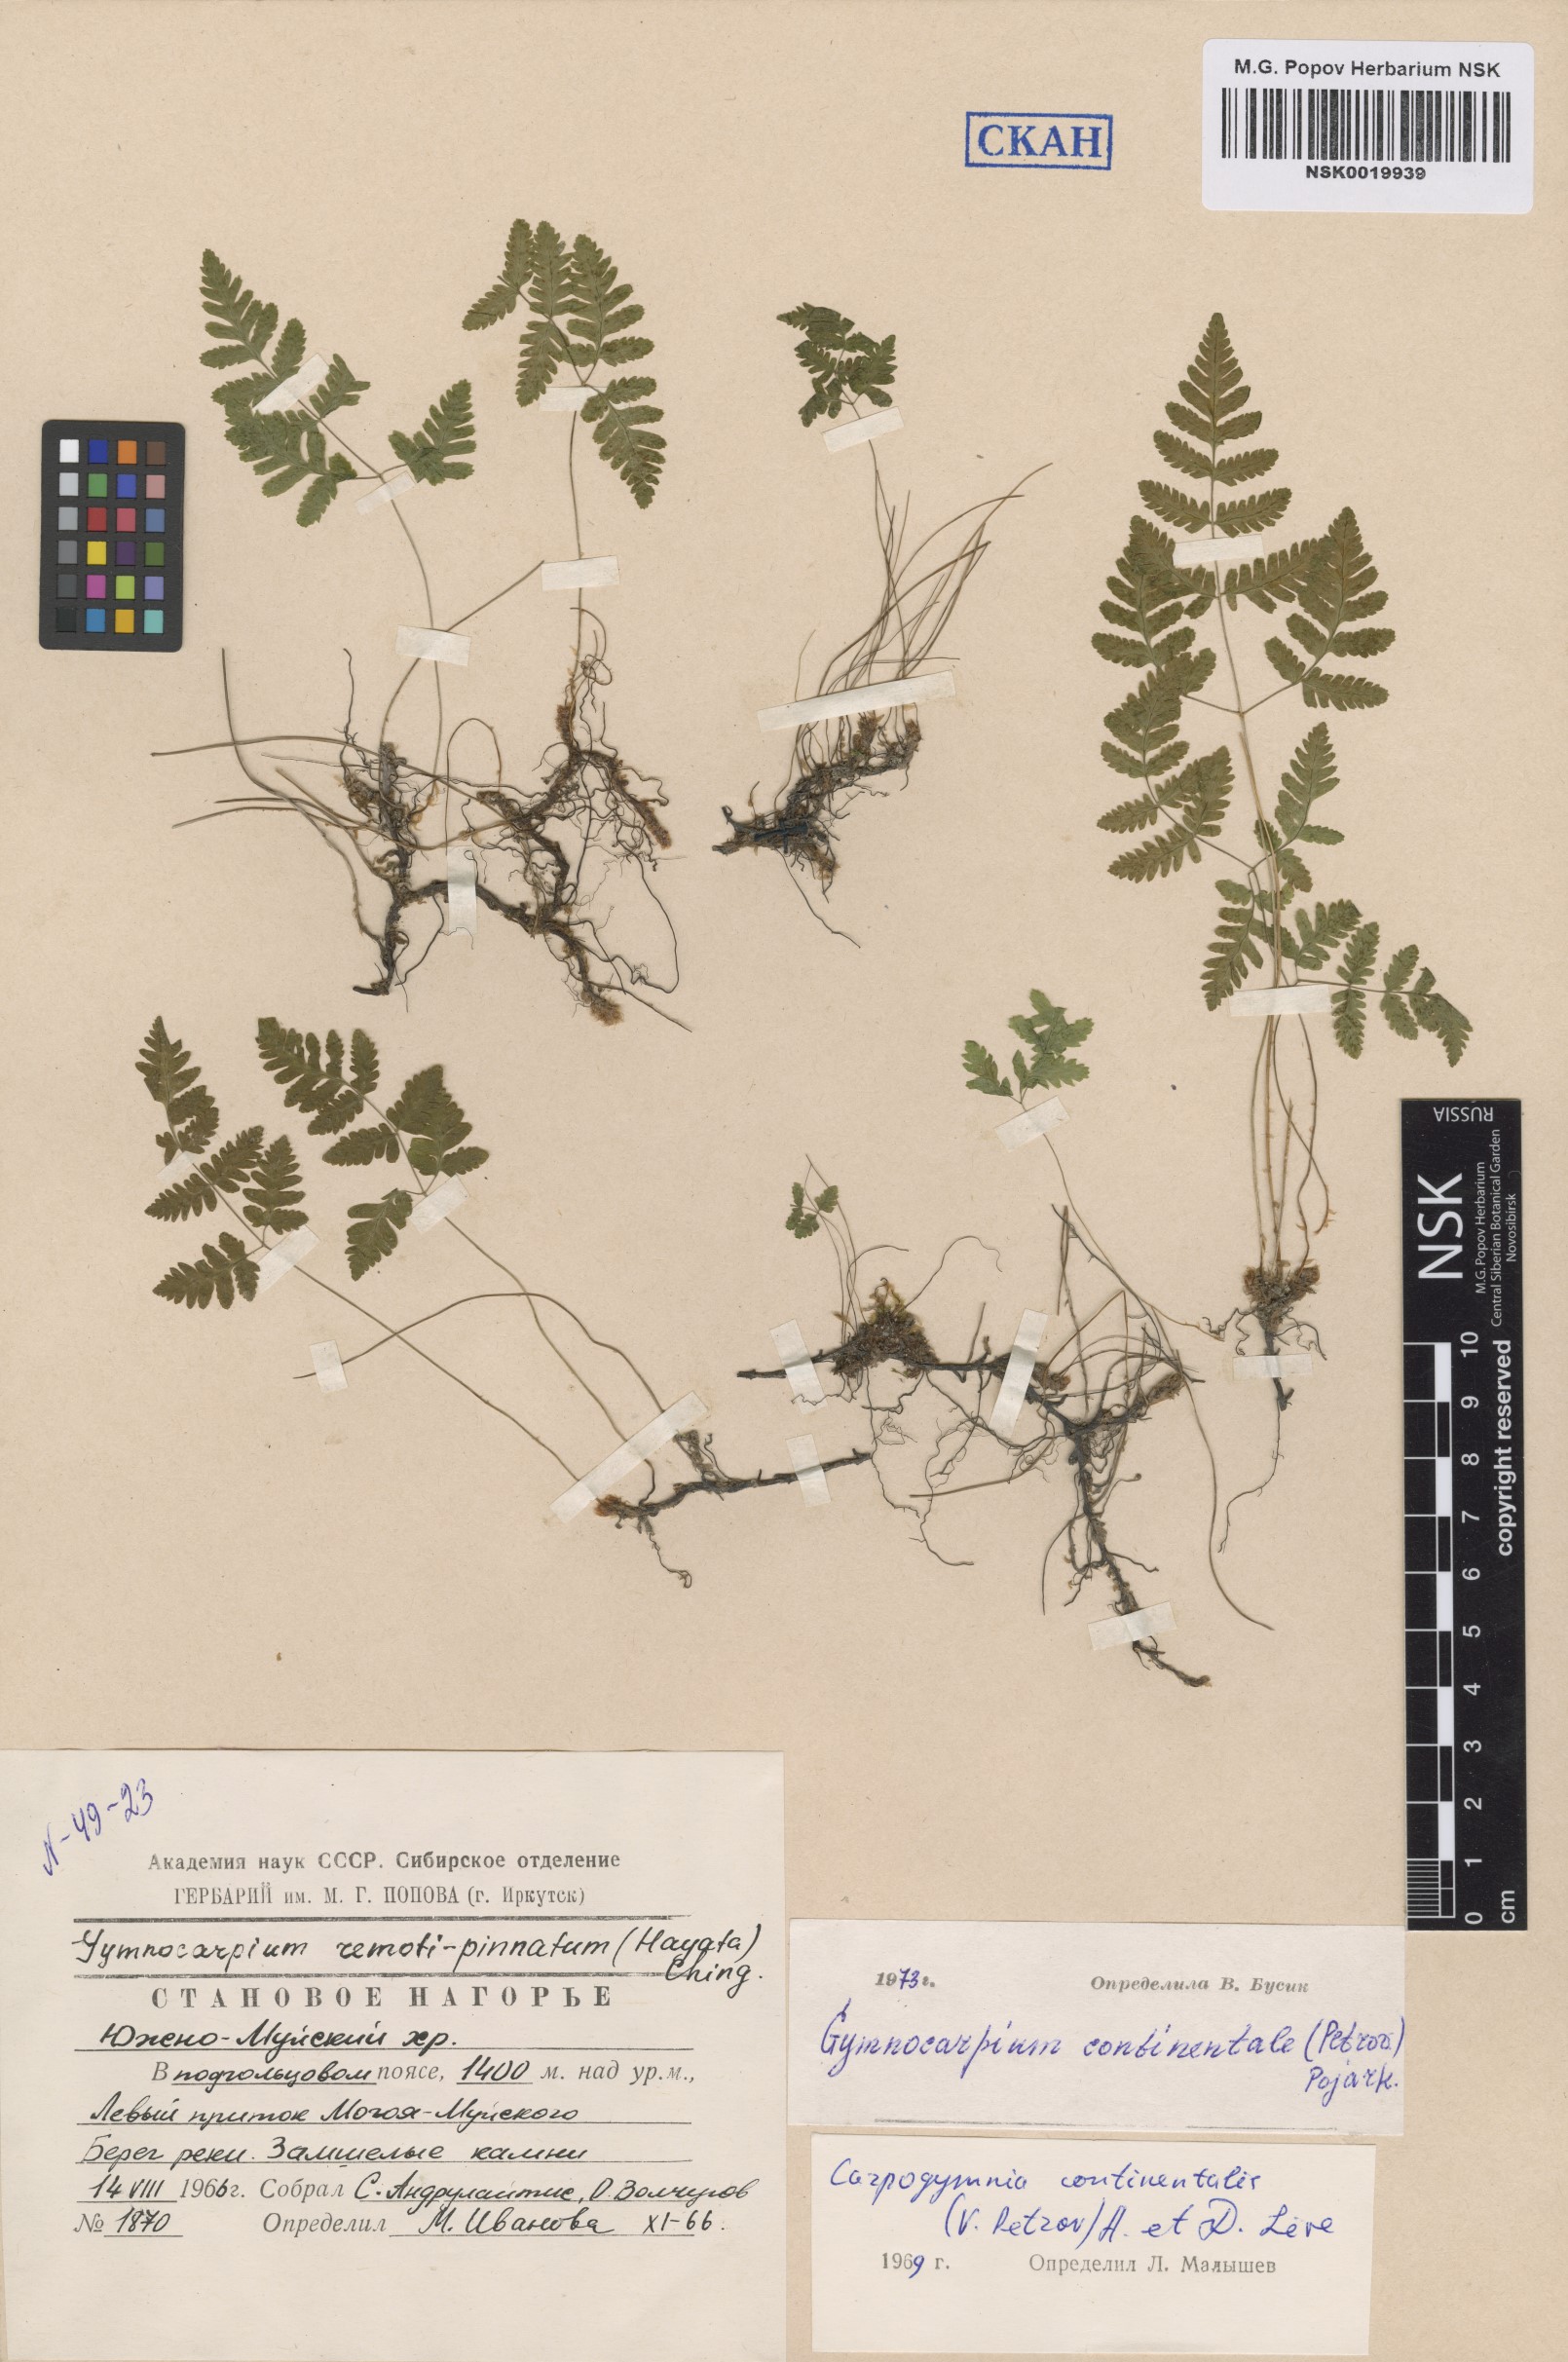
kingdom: Plantae
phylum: Tracheophyta
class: Polypodiopsida
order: Polypodiales
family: Cystopteridaceae
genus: Gymnocarpium
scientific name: Gymnocarpium continentale
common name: Asian oak fern
